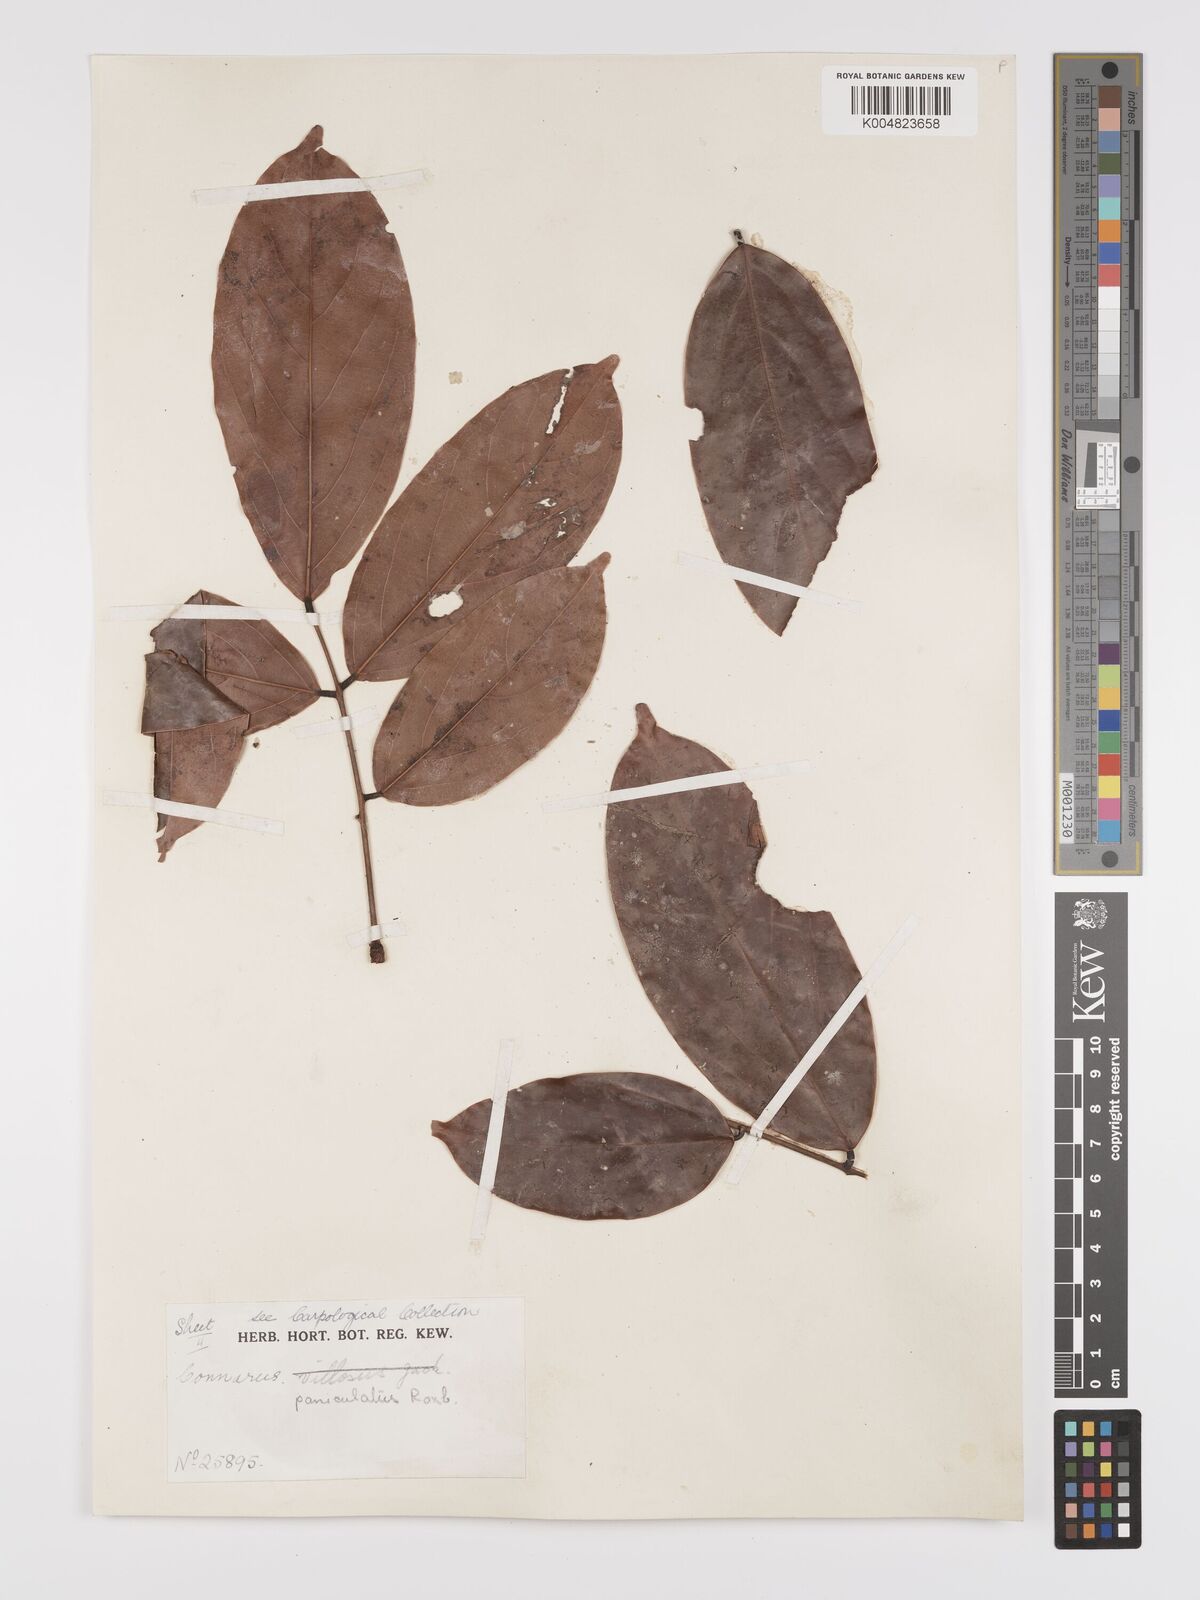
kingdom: Plantae
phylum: Tracheophyta
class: Magnoliopsida
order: Oxalidales
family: Connaraceae
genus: Connarus
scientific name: Connarus paniculatus
